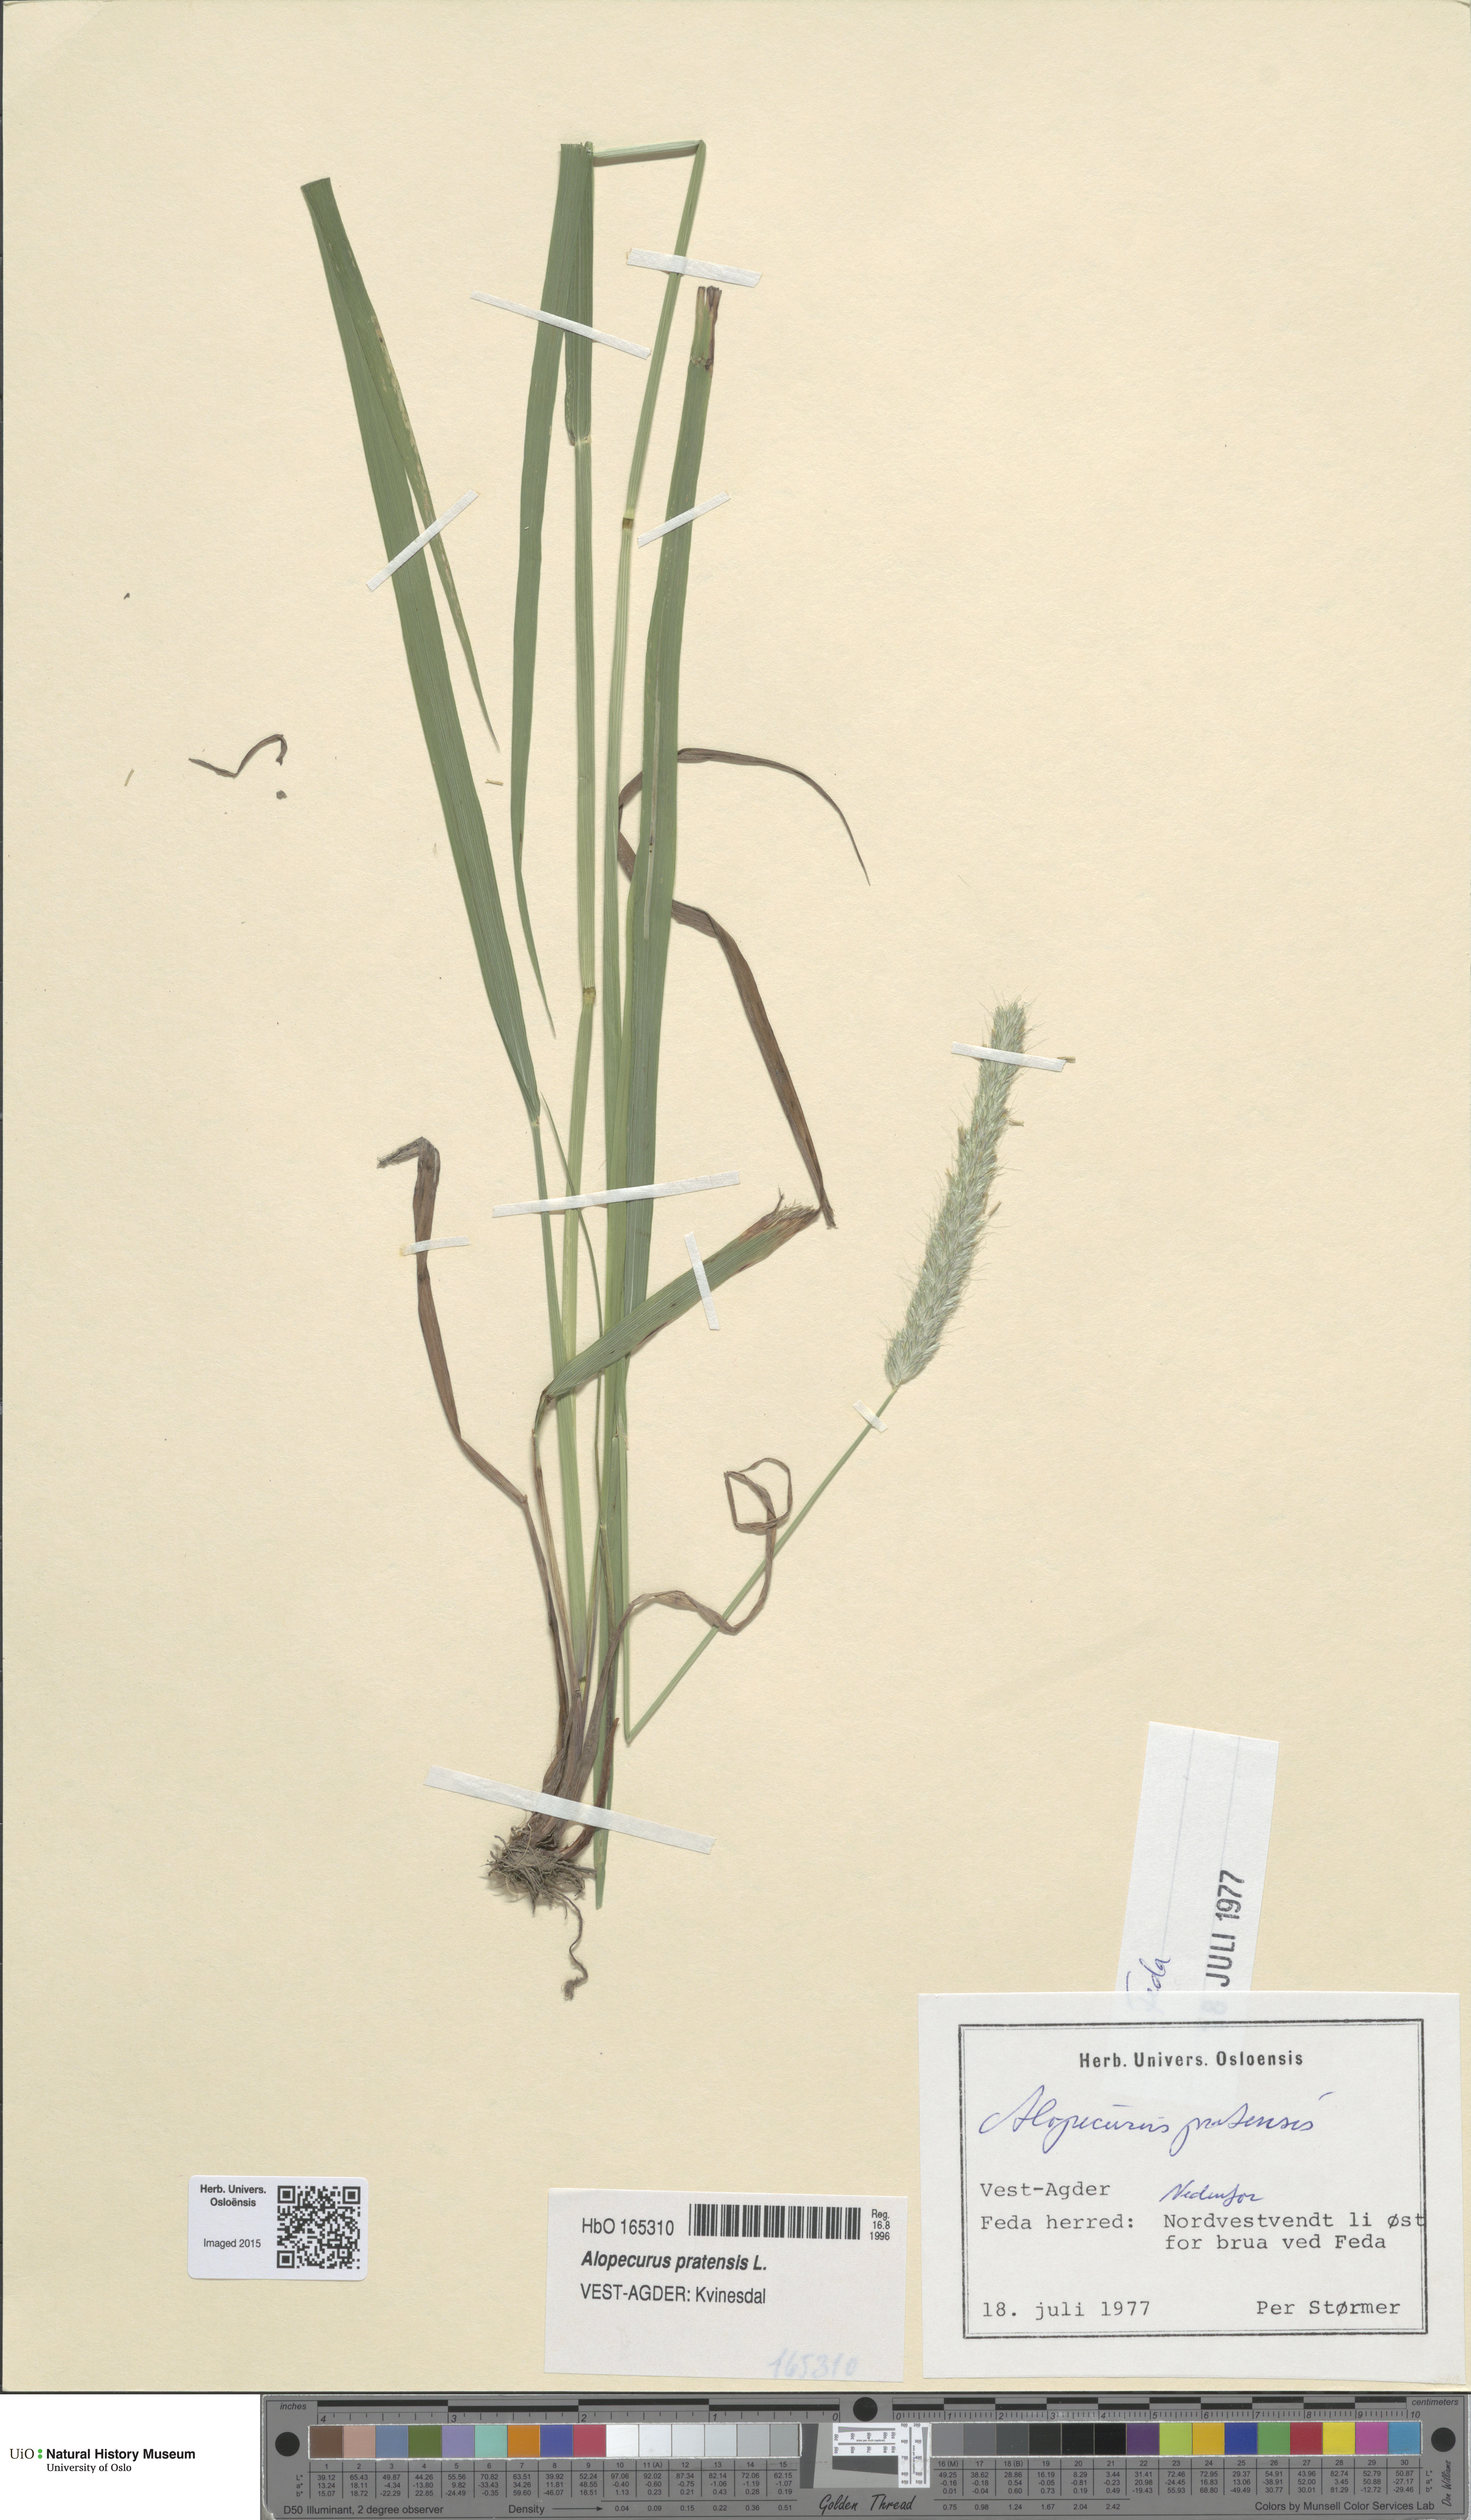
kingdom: Plantae
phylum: Tracheophyta
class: Liliopsida
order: Poales
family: Poaceae
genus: Alopecurus
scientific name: Alopecurus pratensis
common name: Meadow foxtail
